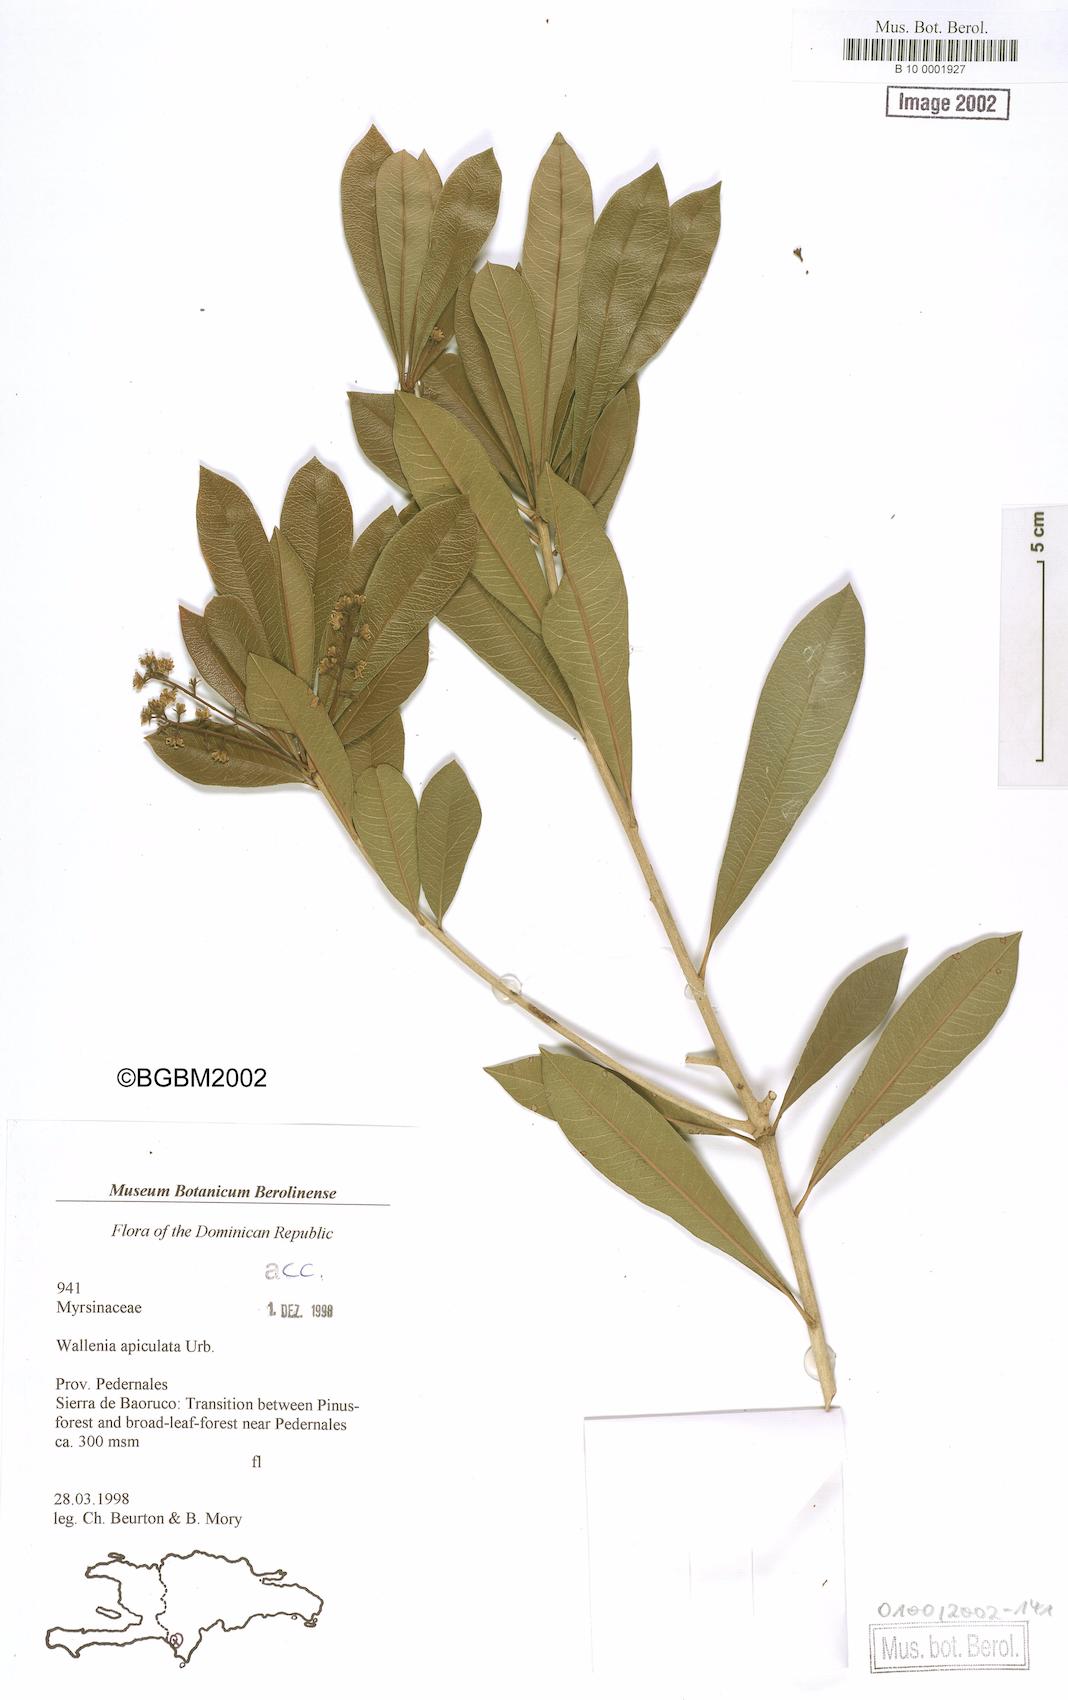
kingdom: Plantae
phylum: Tracheophyta
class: Magnoliopsida
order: Ericales
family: Primulaceae
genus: Wallenia
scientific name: Wallenia apiculata
